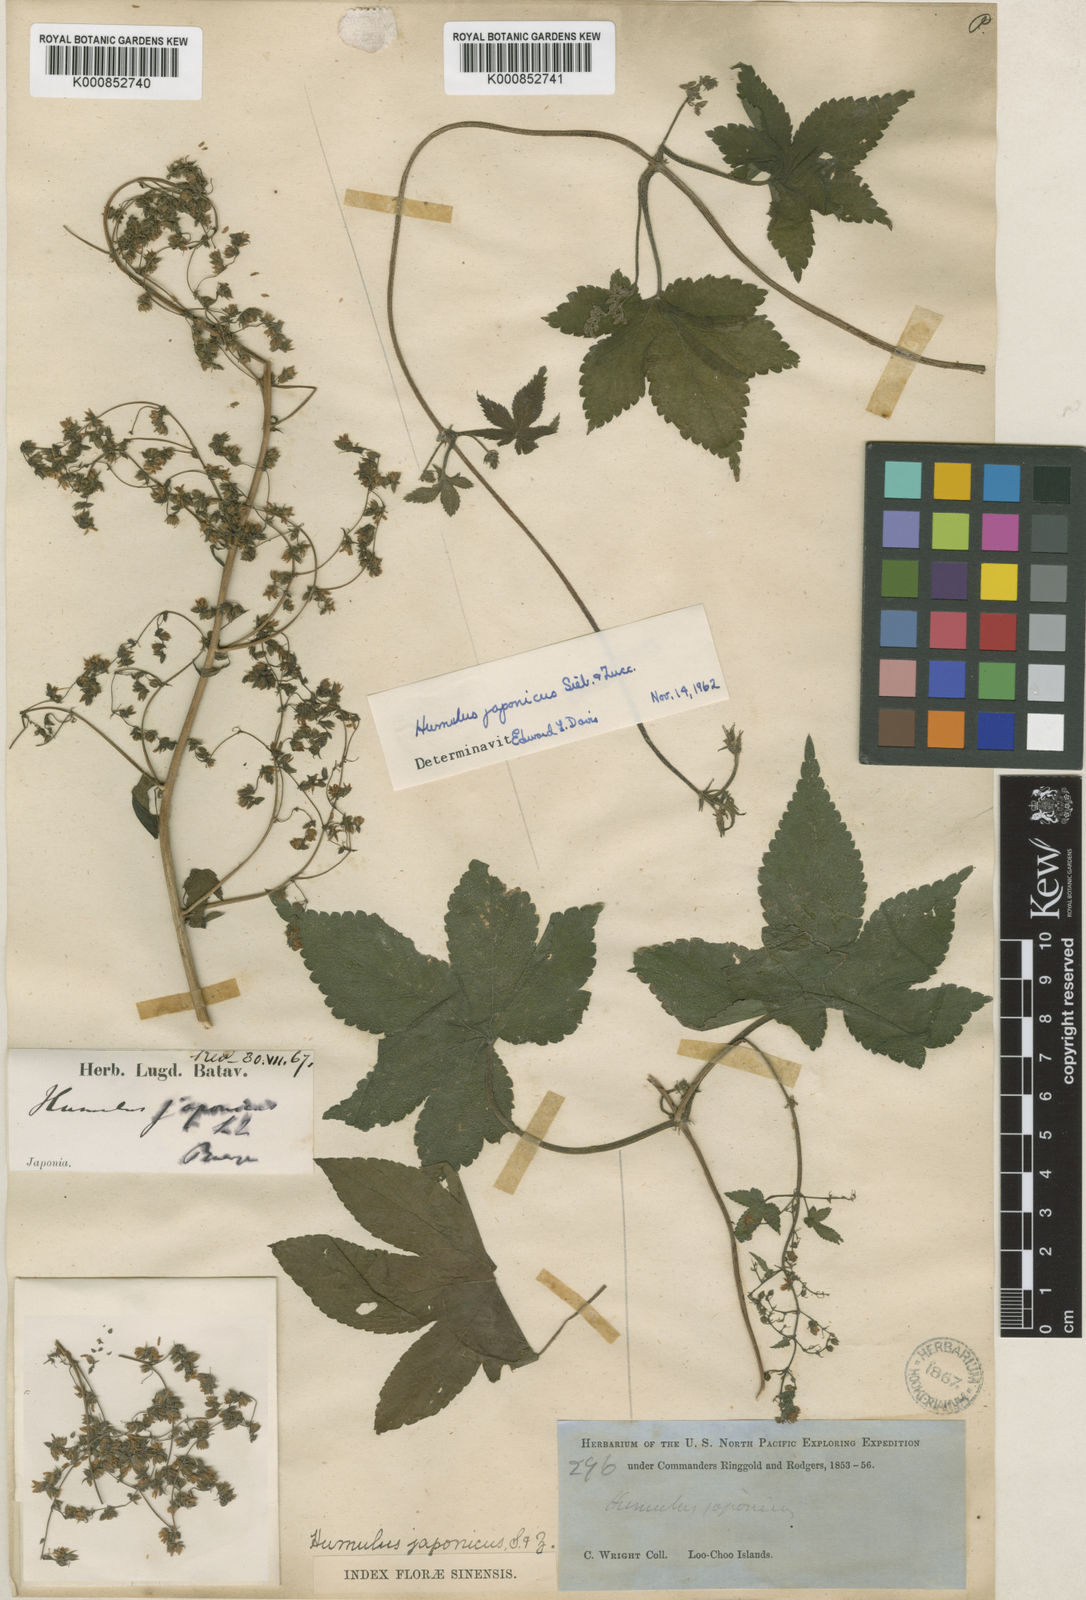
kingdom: Plantae
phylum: Tracheophyta
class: Magnoliopsida
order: Rosales
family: Cannabaceae
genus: Humulus
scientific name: Humulus scandens
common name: Japanese hop
